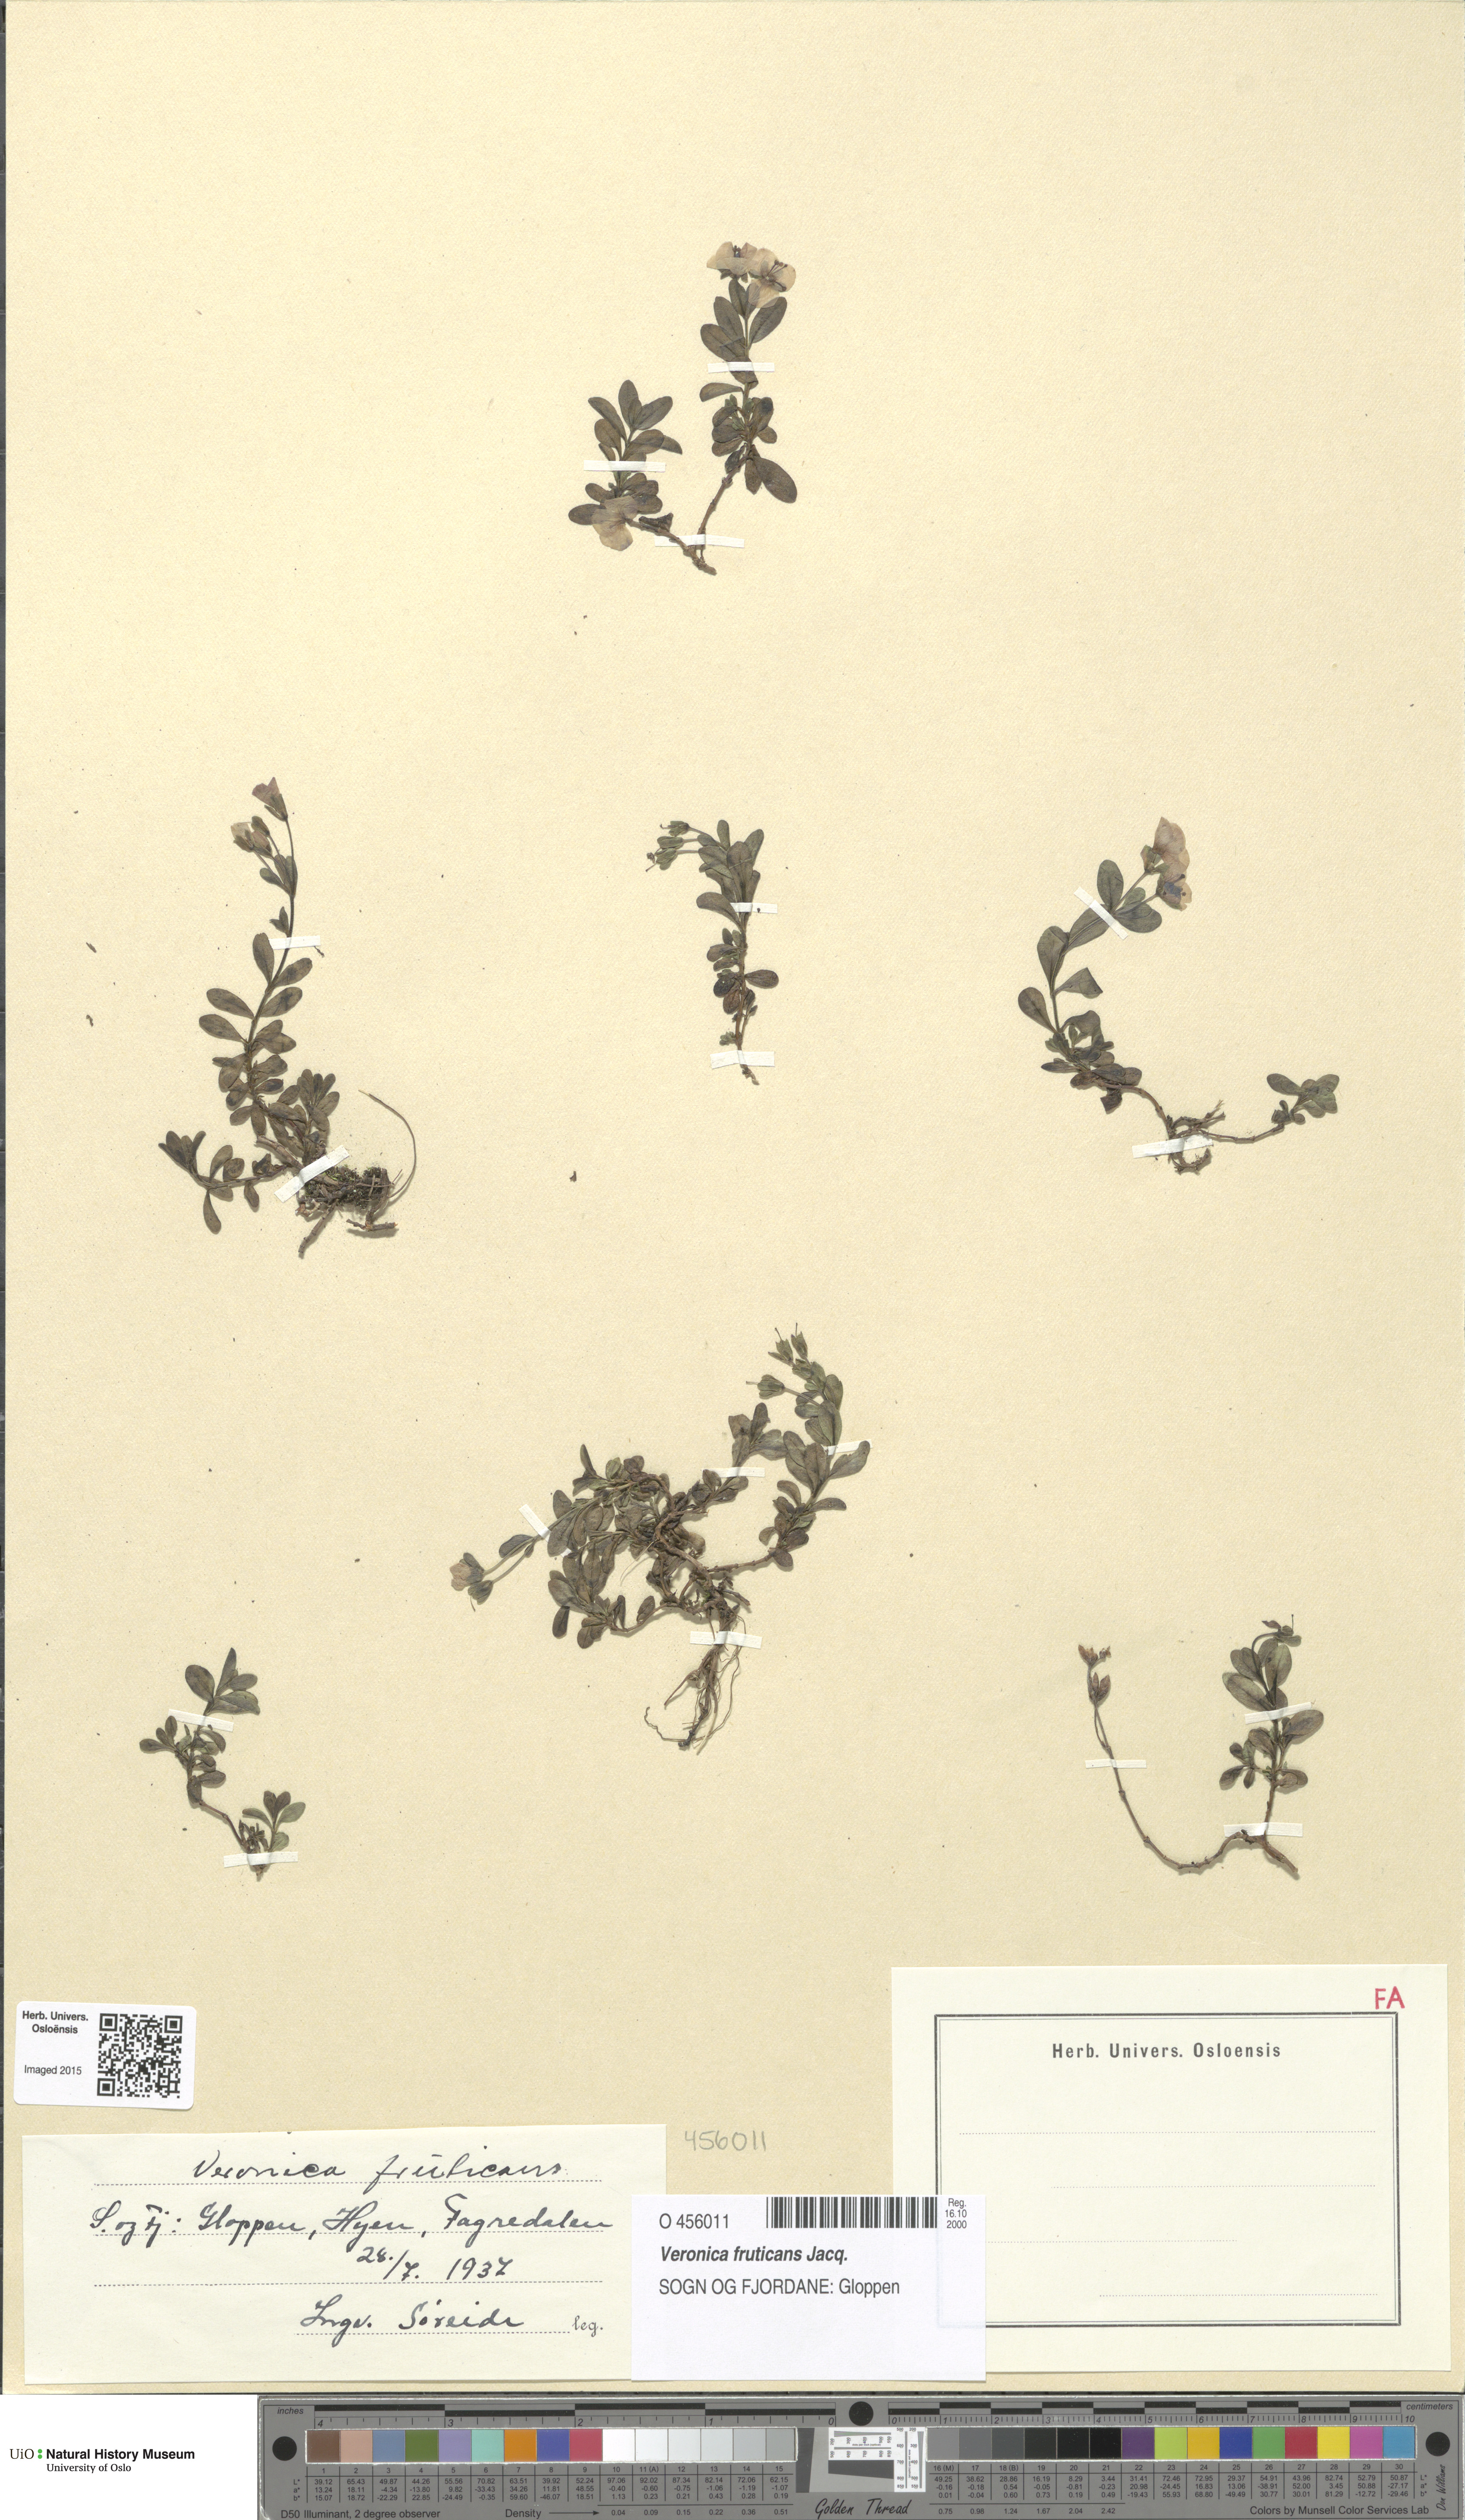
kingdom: Plantae
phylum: Tracheophyta
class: Magnoliopsida
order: Lamiales
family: Plantaginaceae
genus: Veronica
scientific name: Veronica fruticans
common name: Rock speedwell
